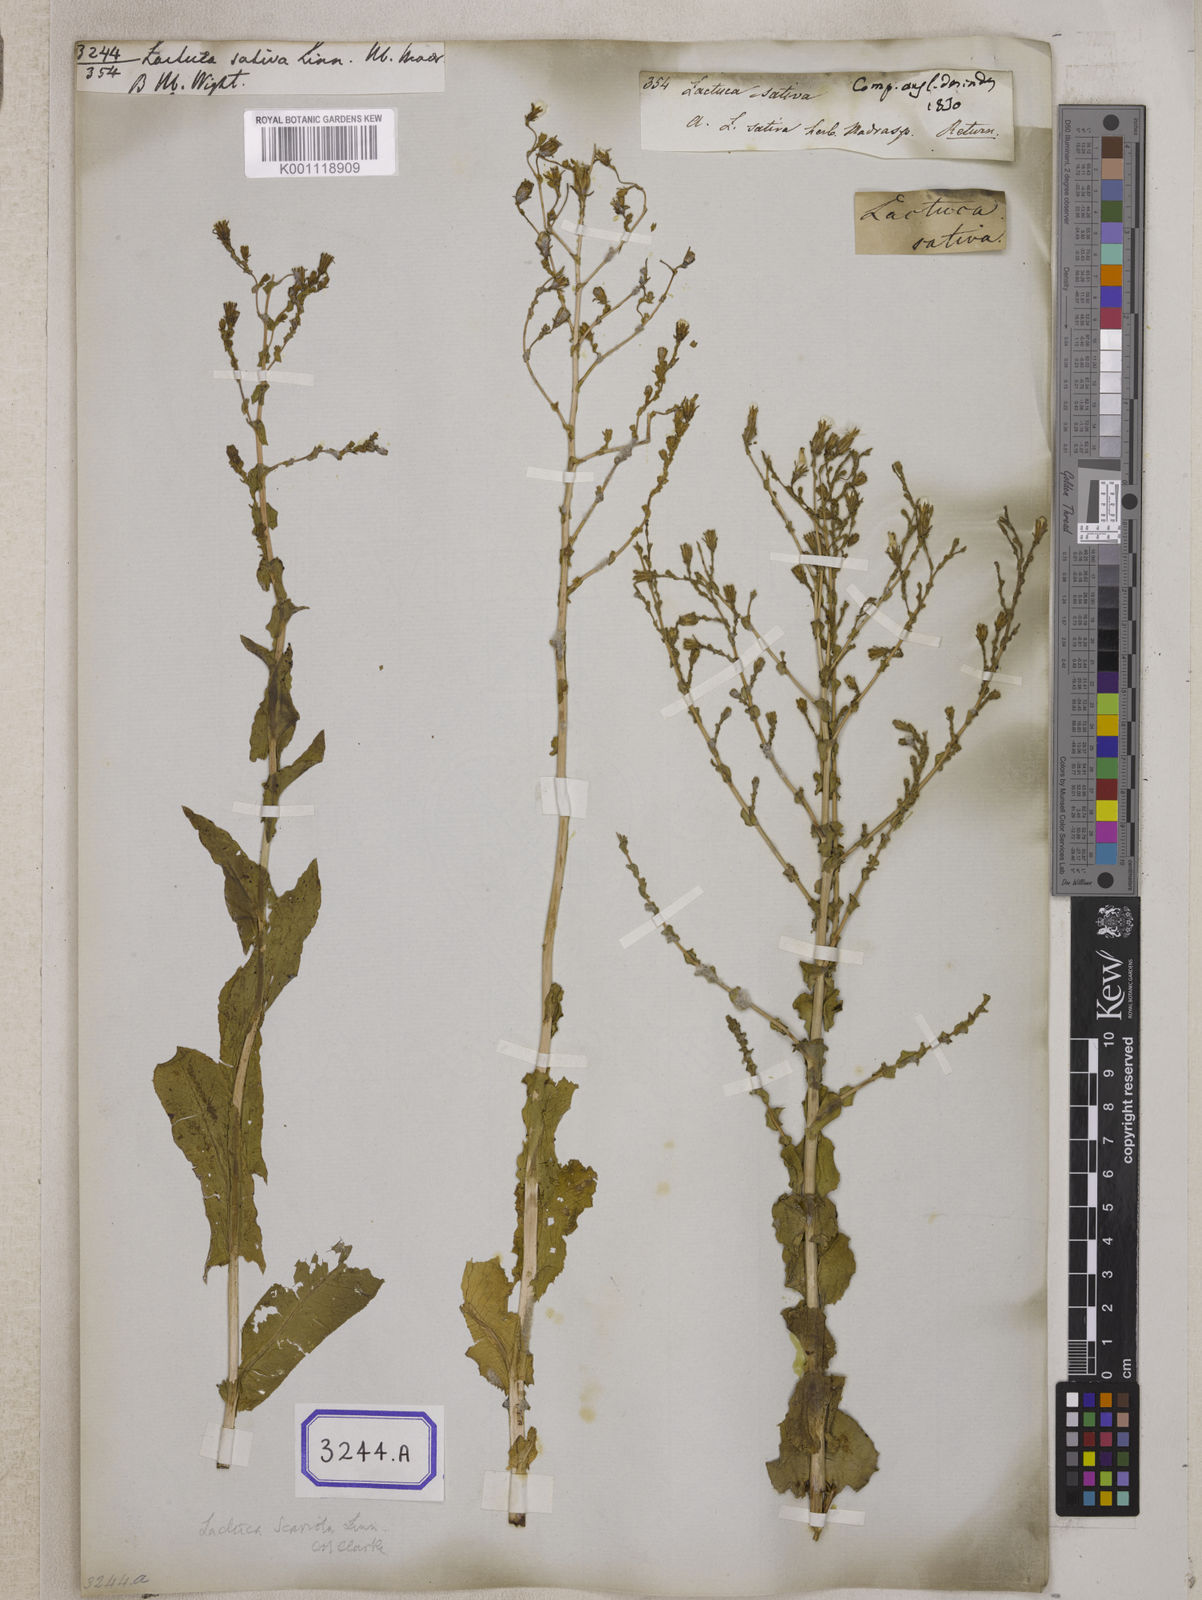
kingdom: Plantae
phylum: Tracheophyta
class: Magnoliopsida
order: Asterales
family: Asteraceae
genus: Lactuca
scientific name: Lactuca sativa
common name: Garden lettuce
